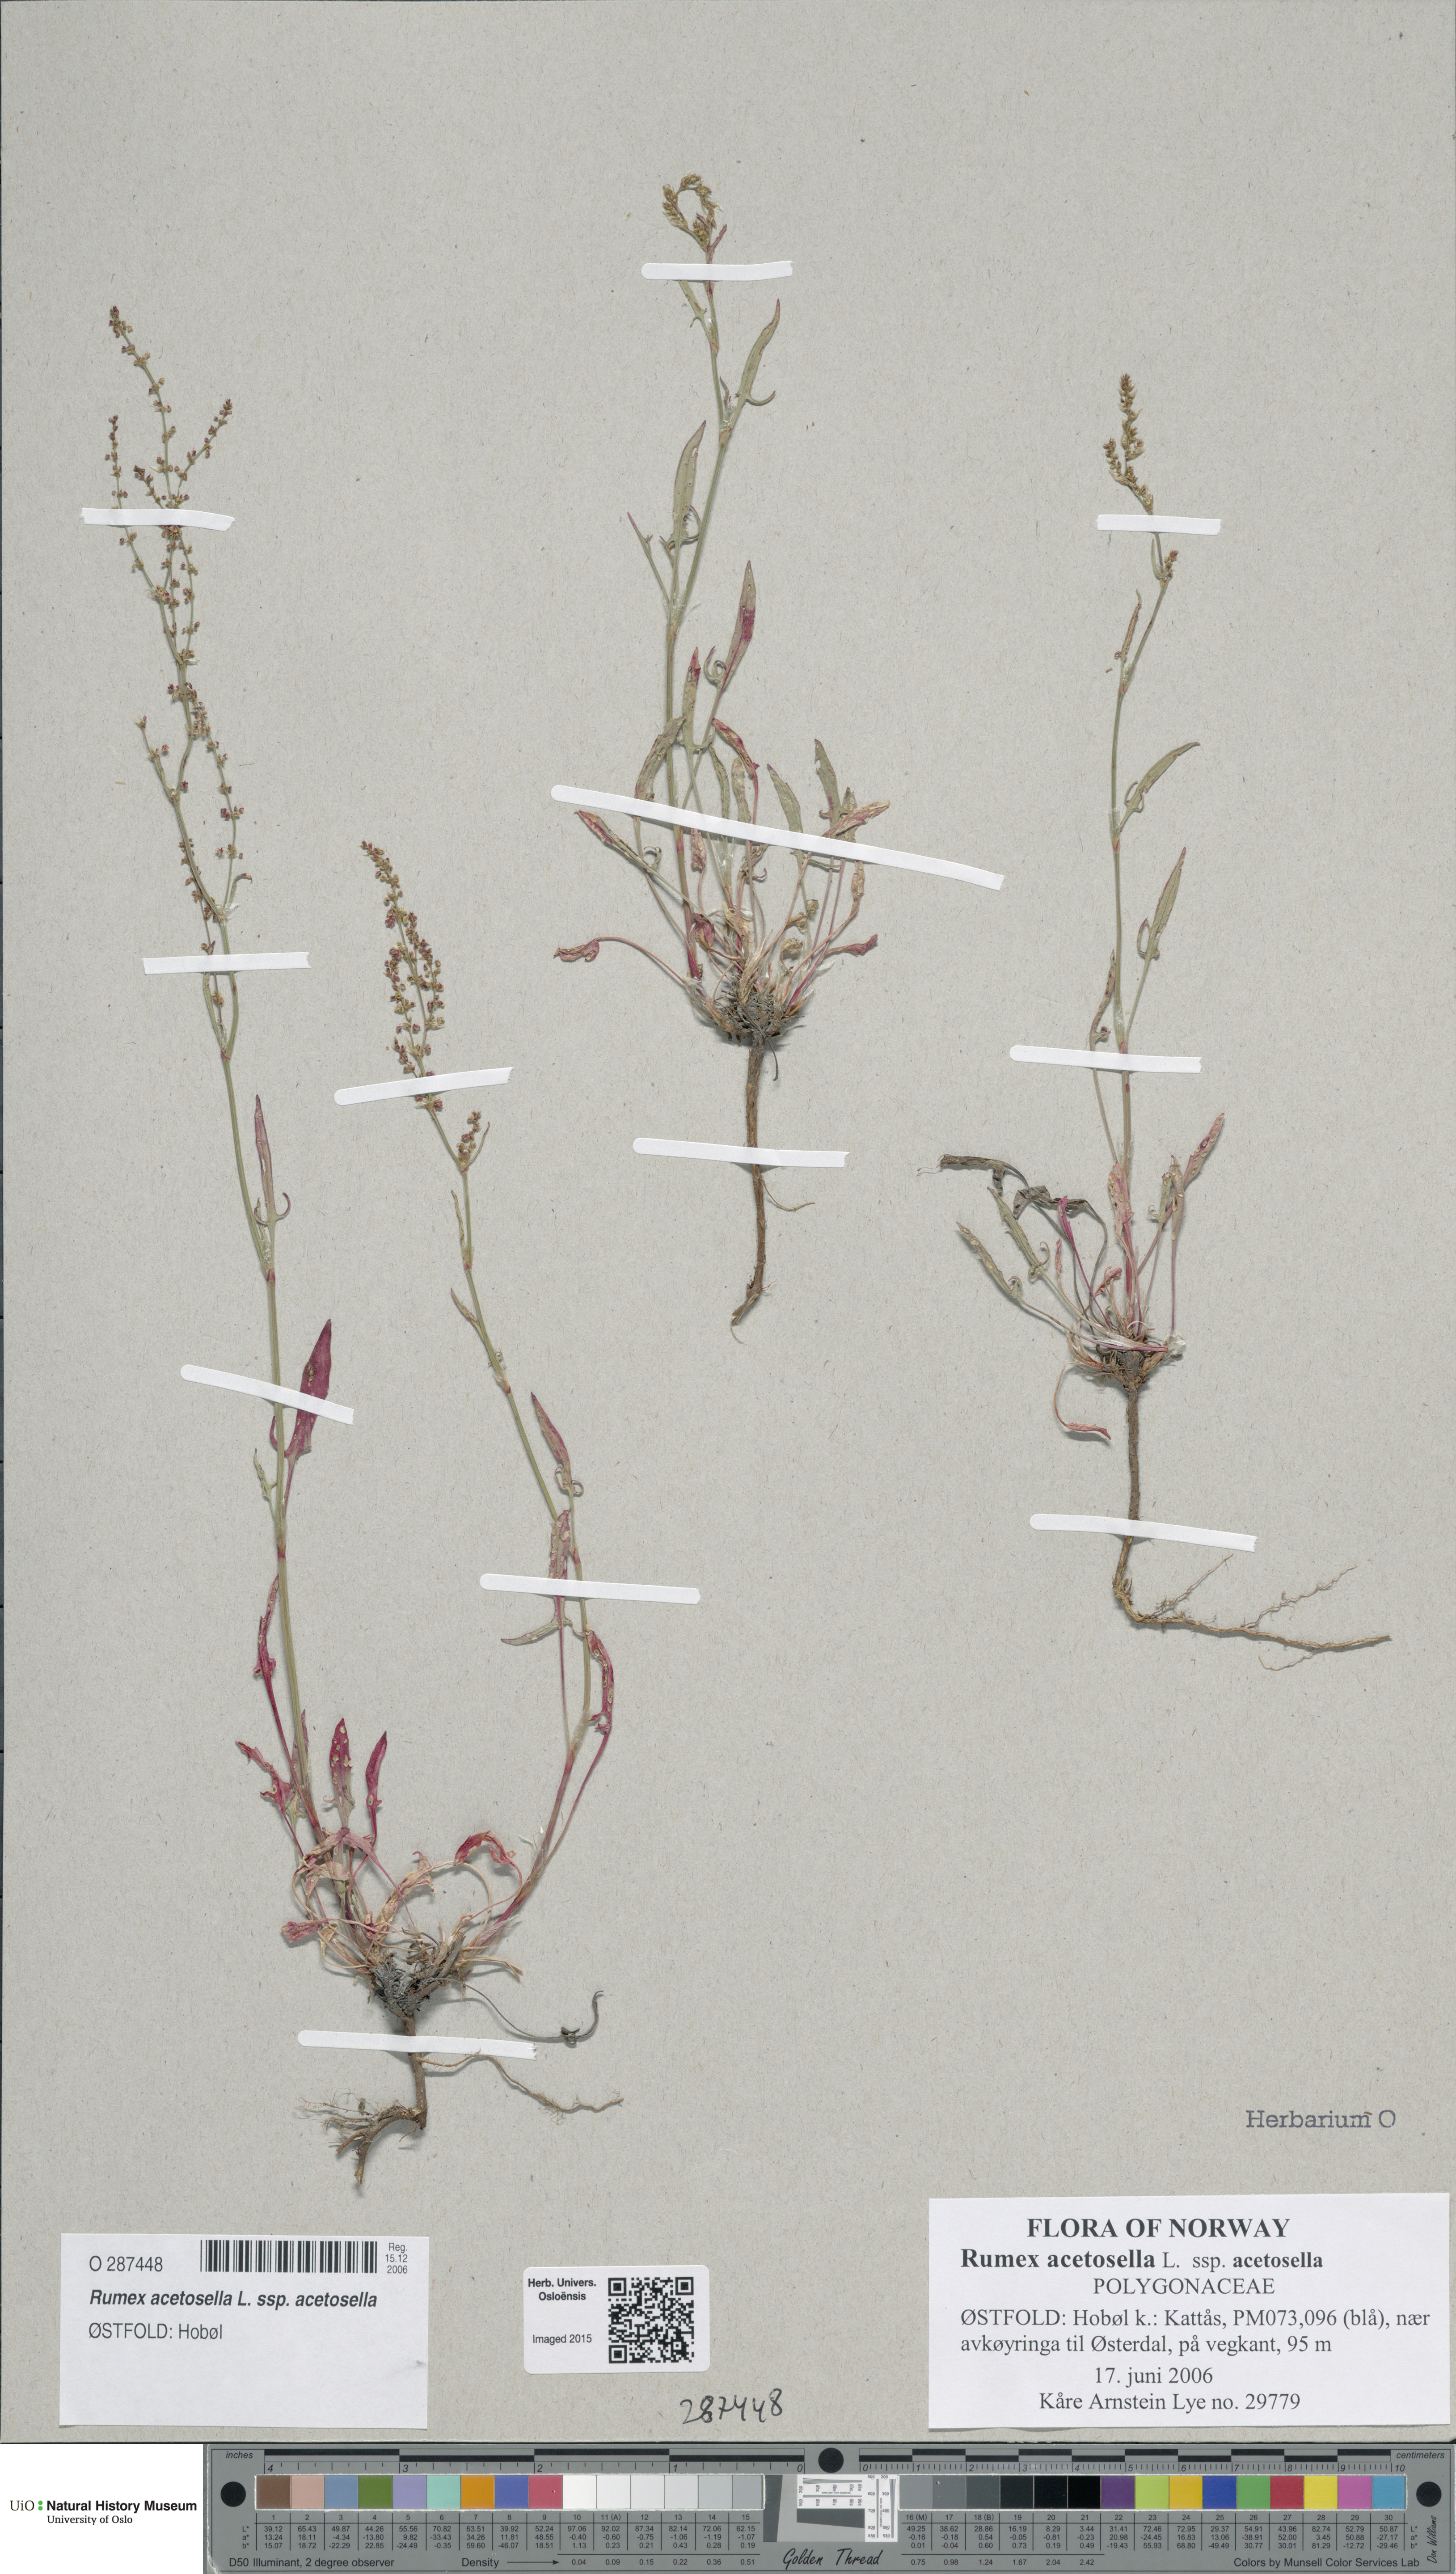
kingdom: Plantae
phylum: Tracheophyta
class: Magnoliopsida
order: Caryophyllales
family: Polygonaceae
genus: Rumex
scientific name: Rumex acetosella
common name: Common sheep sorrel
